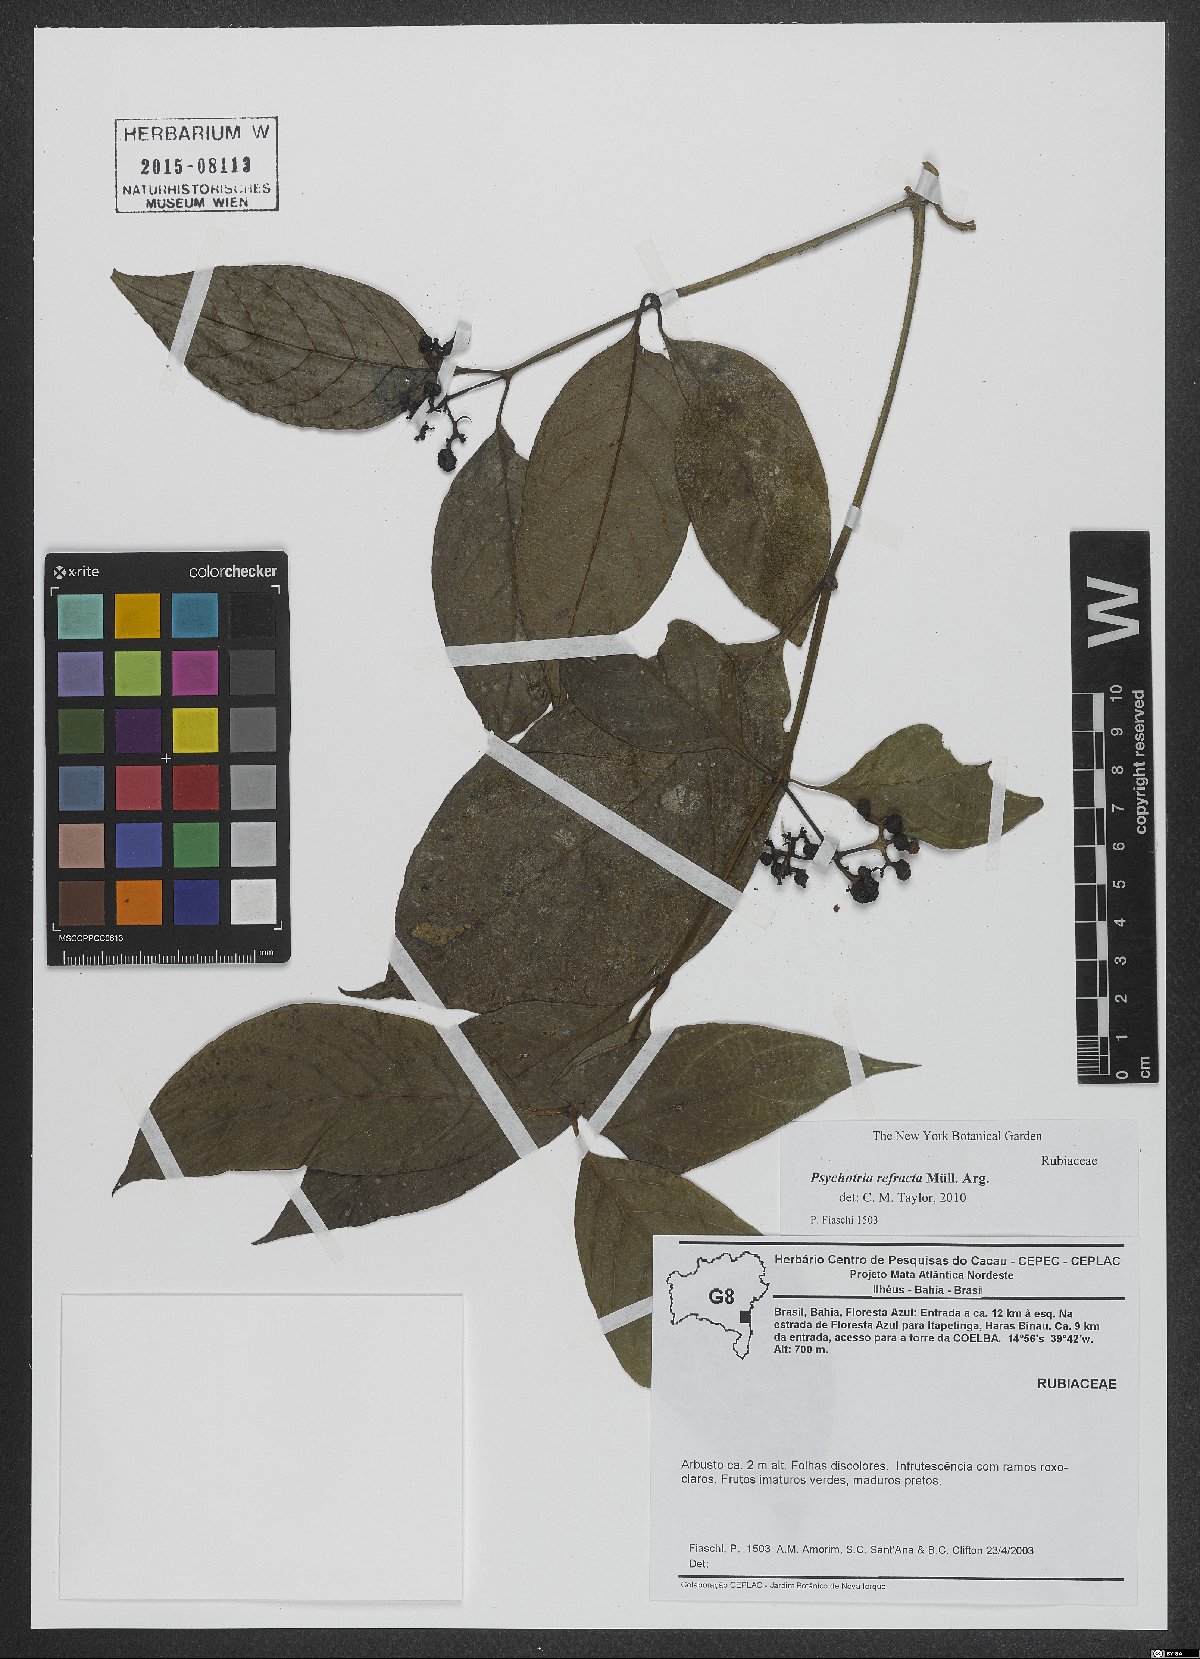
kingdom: Plantae
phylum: Tracheophyta
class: Magnoliopsida
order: Gentianales
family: Rubiaceae
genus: Psychotria
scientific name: Psychotria refracta
